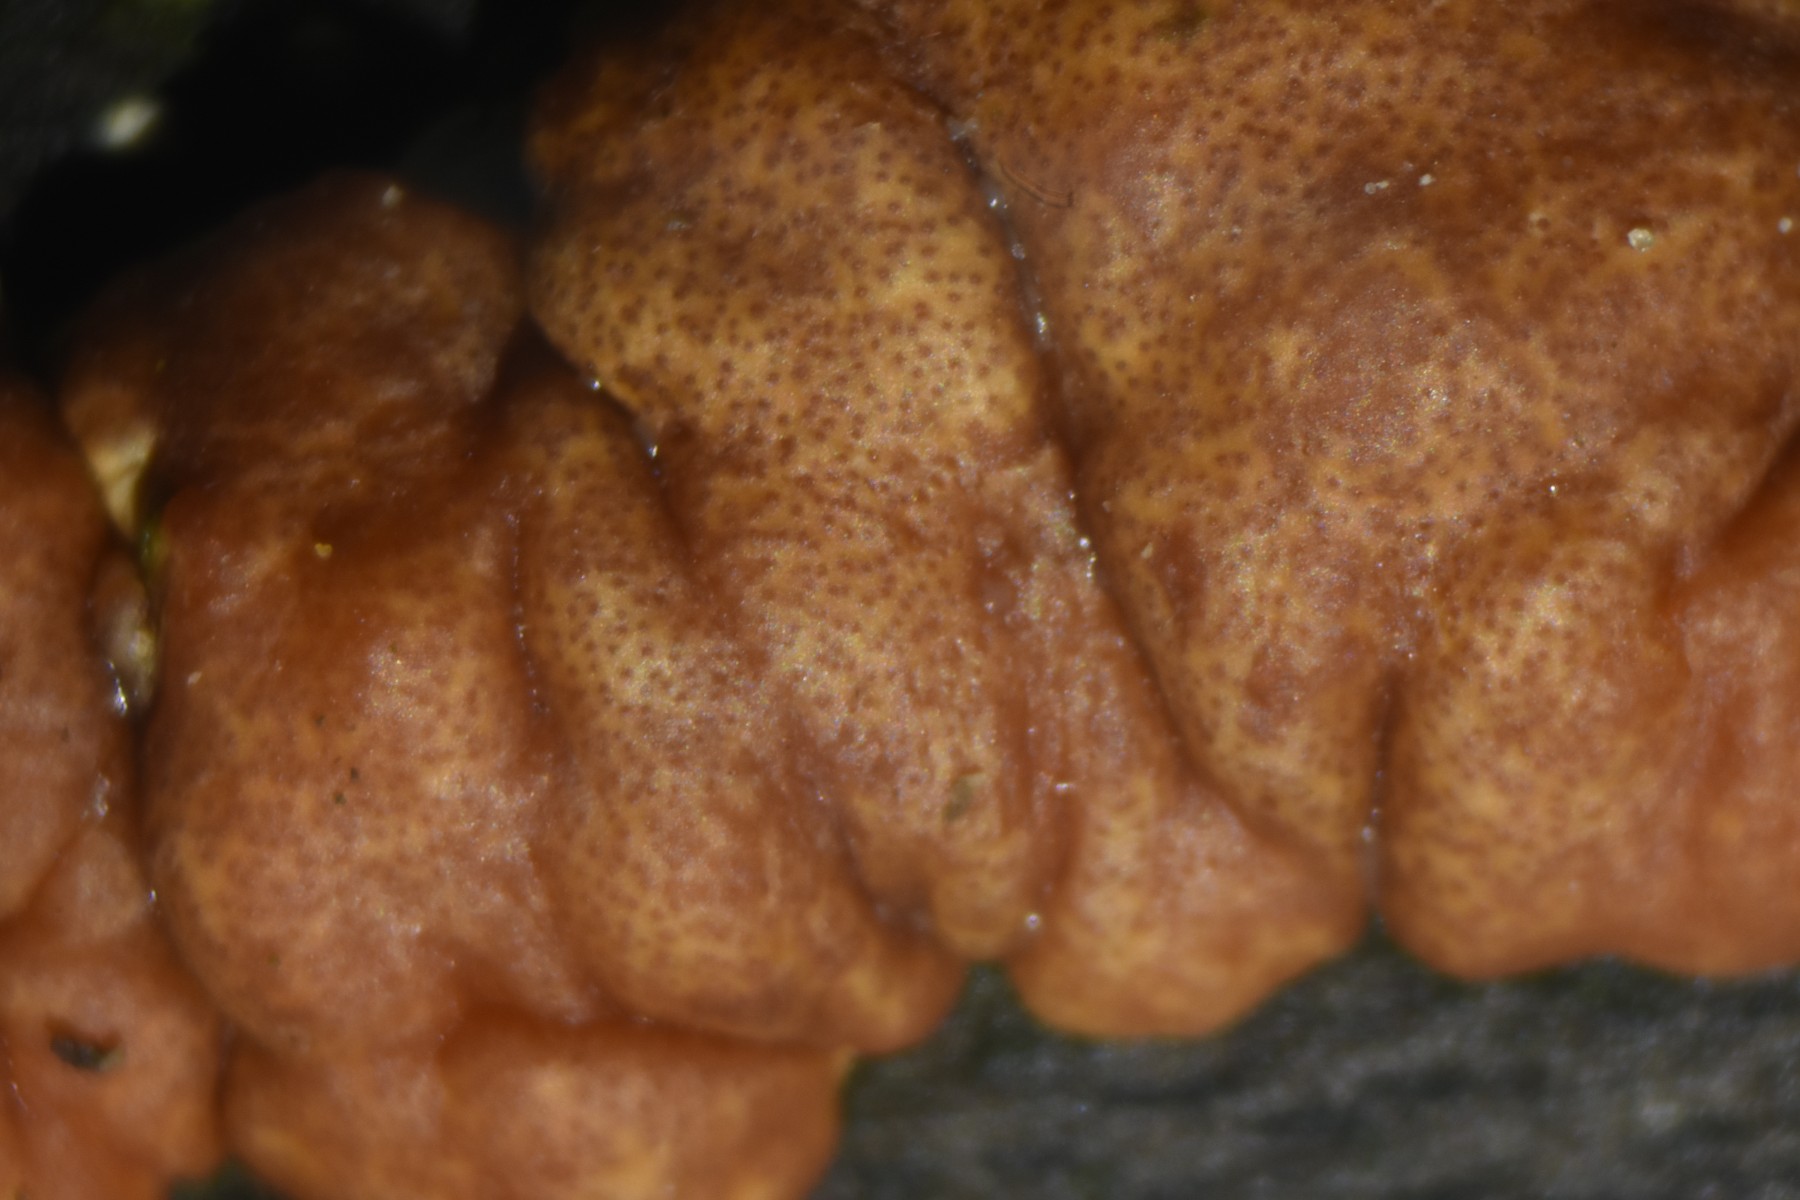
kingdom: Fungi
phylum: Ascomycota
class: Sordariomycetes
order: Hypocreales
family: Hypocreaceae
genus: Trichoderma
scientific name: Trichoderma europaeum
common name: rosabrun kødkerne
